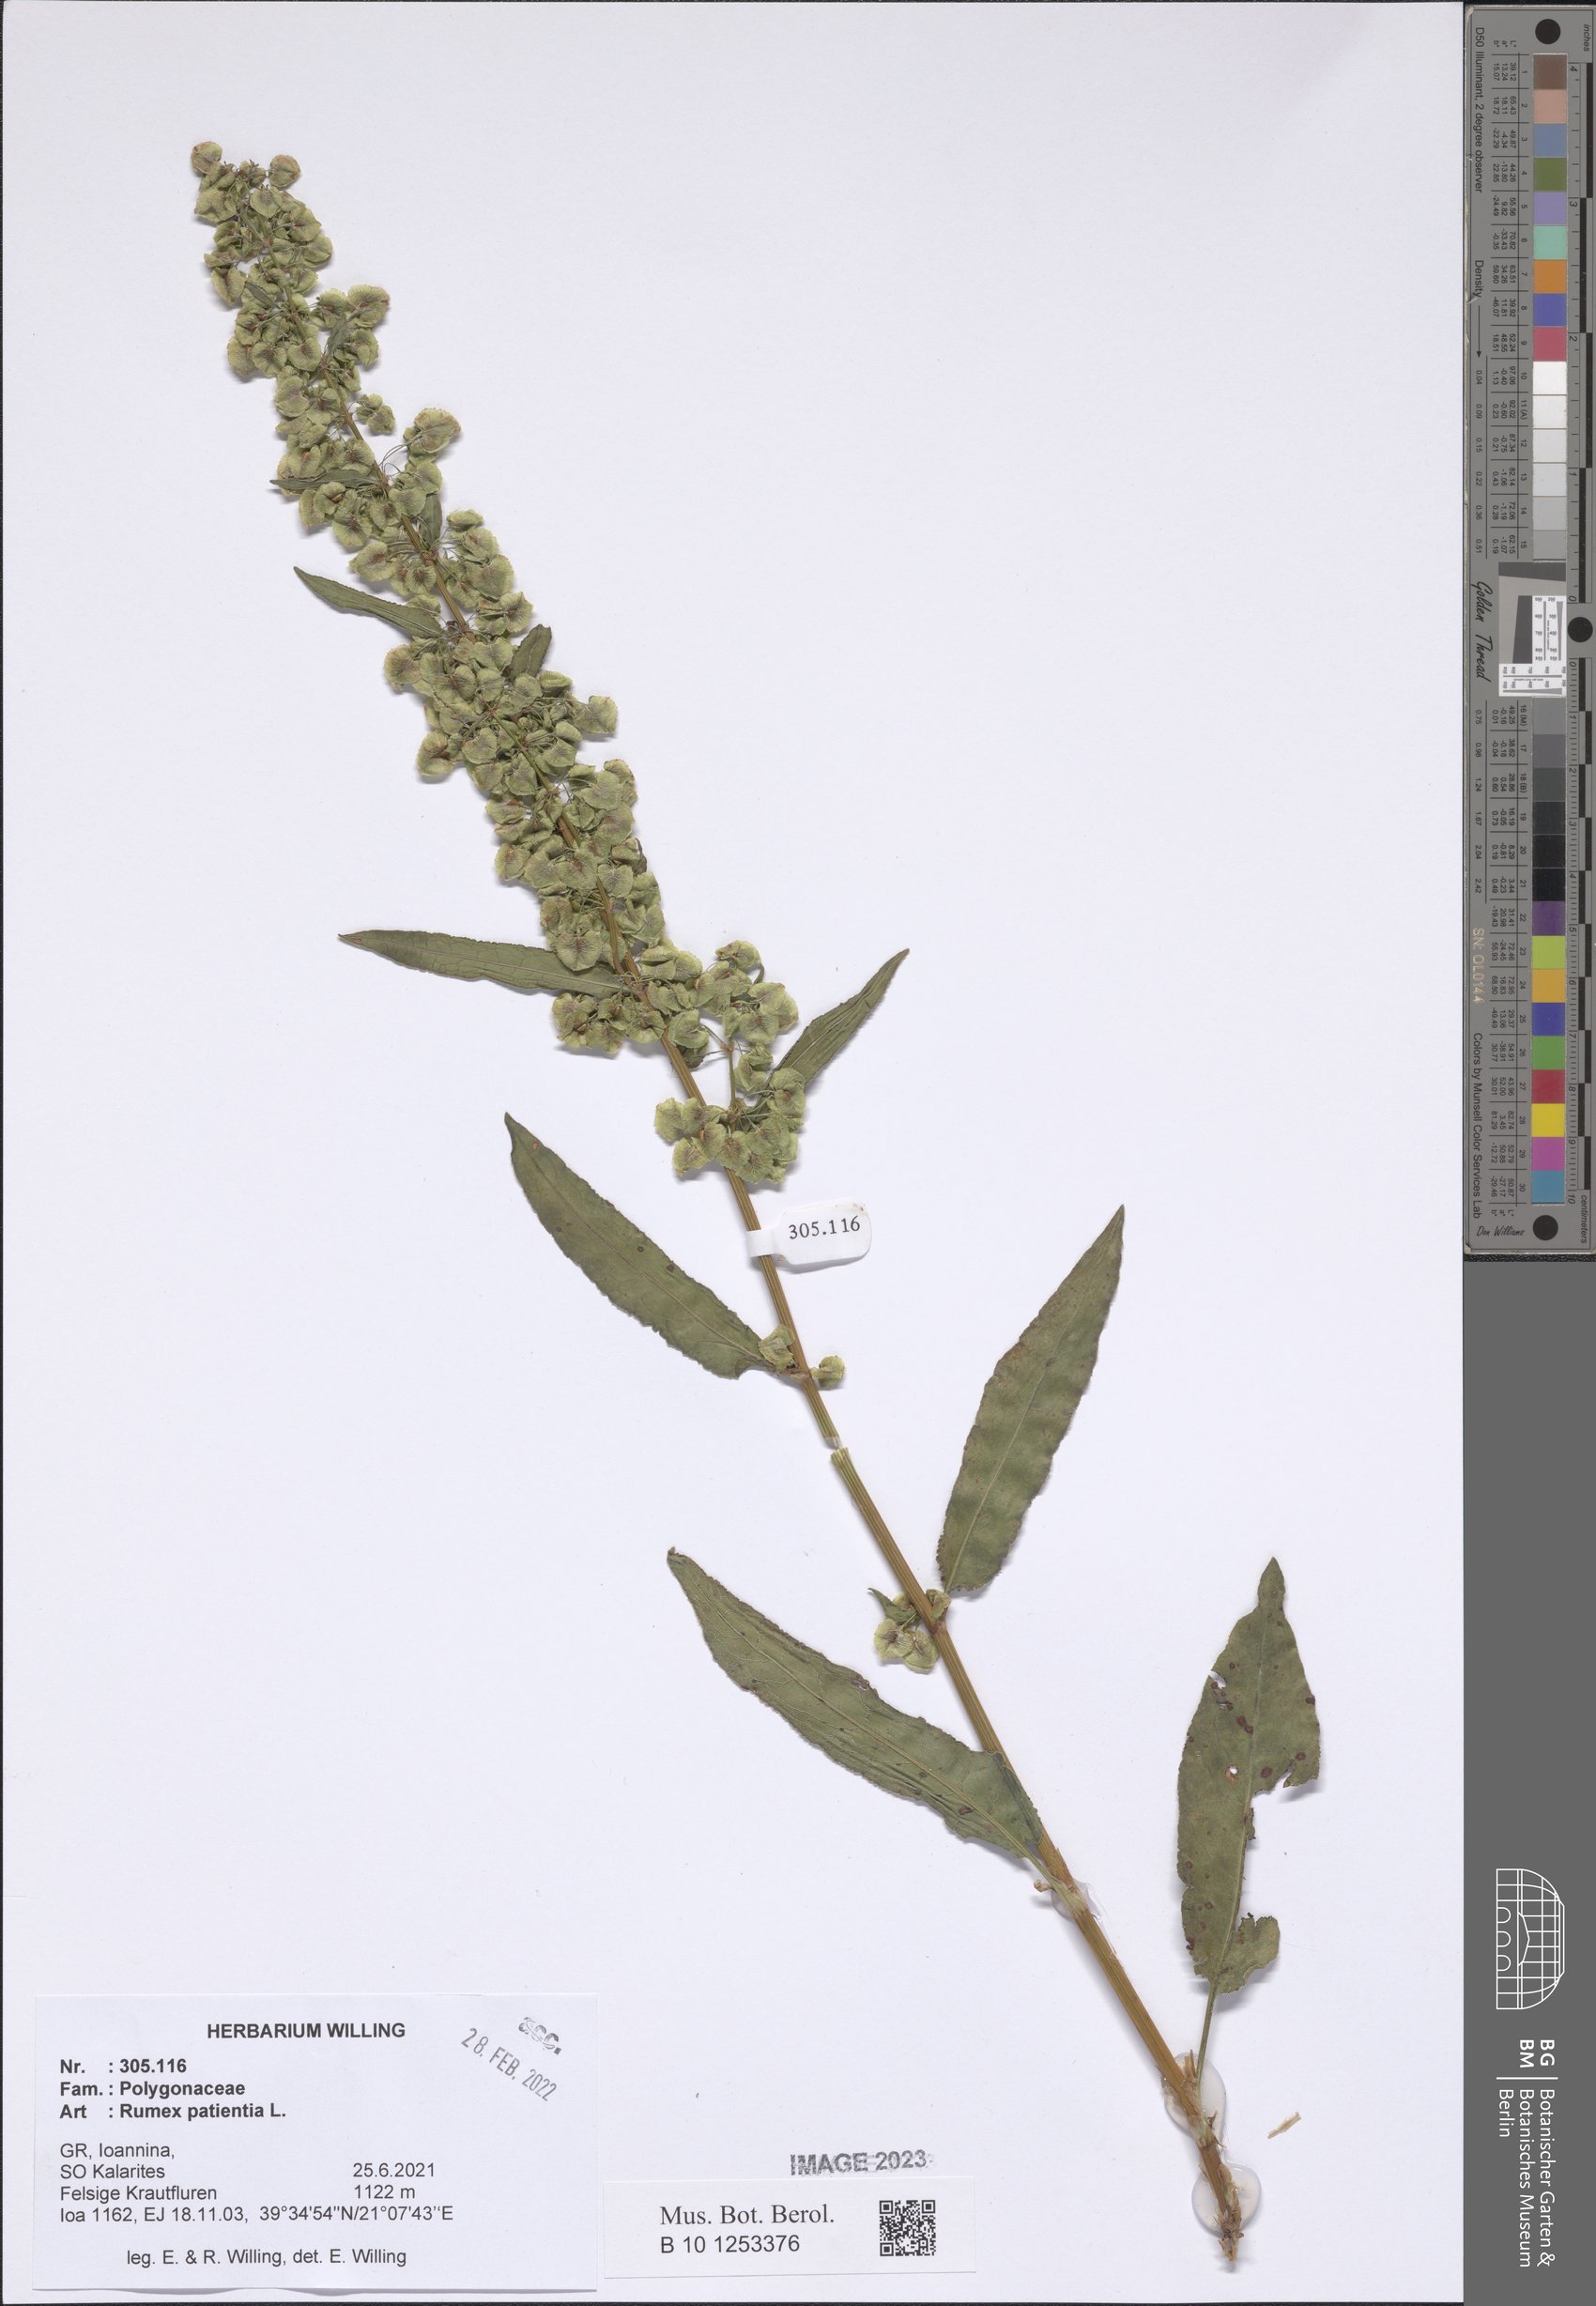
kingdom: Plantae
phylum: Tracheophyta
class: Magnoliopsida
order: Caryophyllales
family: Polygonaceae
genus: Rumex
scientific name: Rumex patientia
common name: Patience dock
